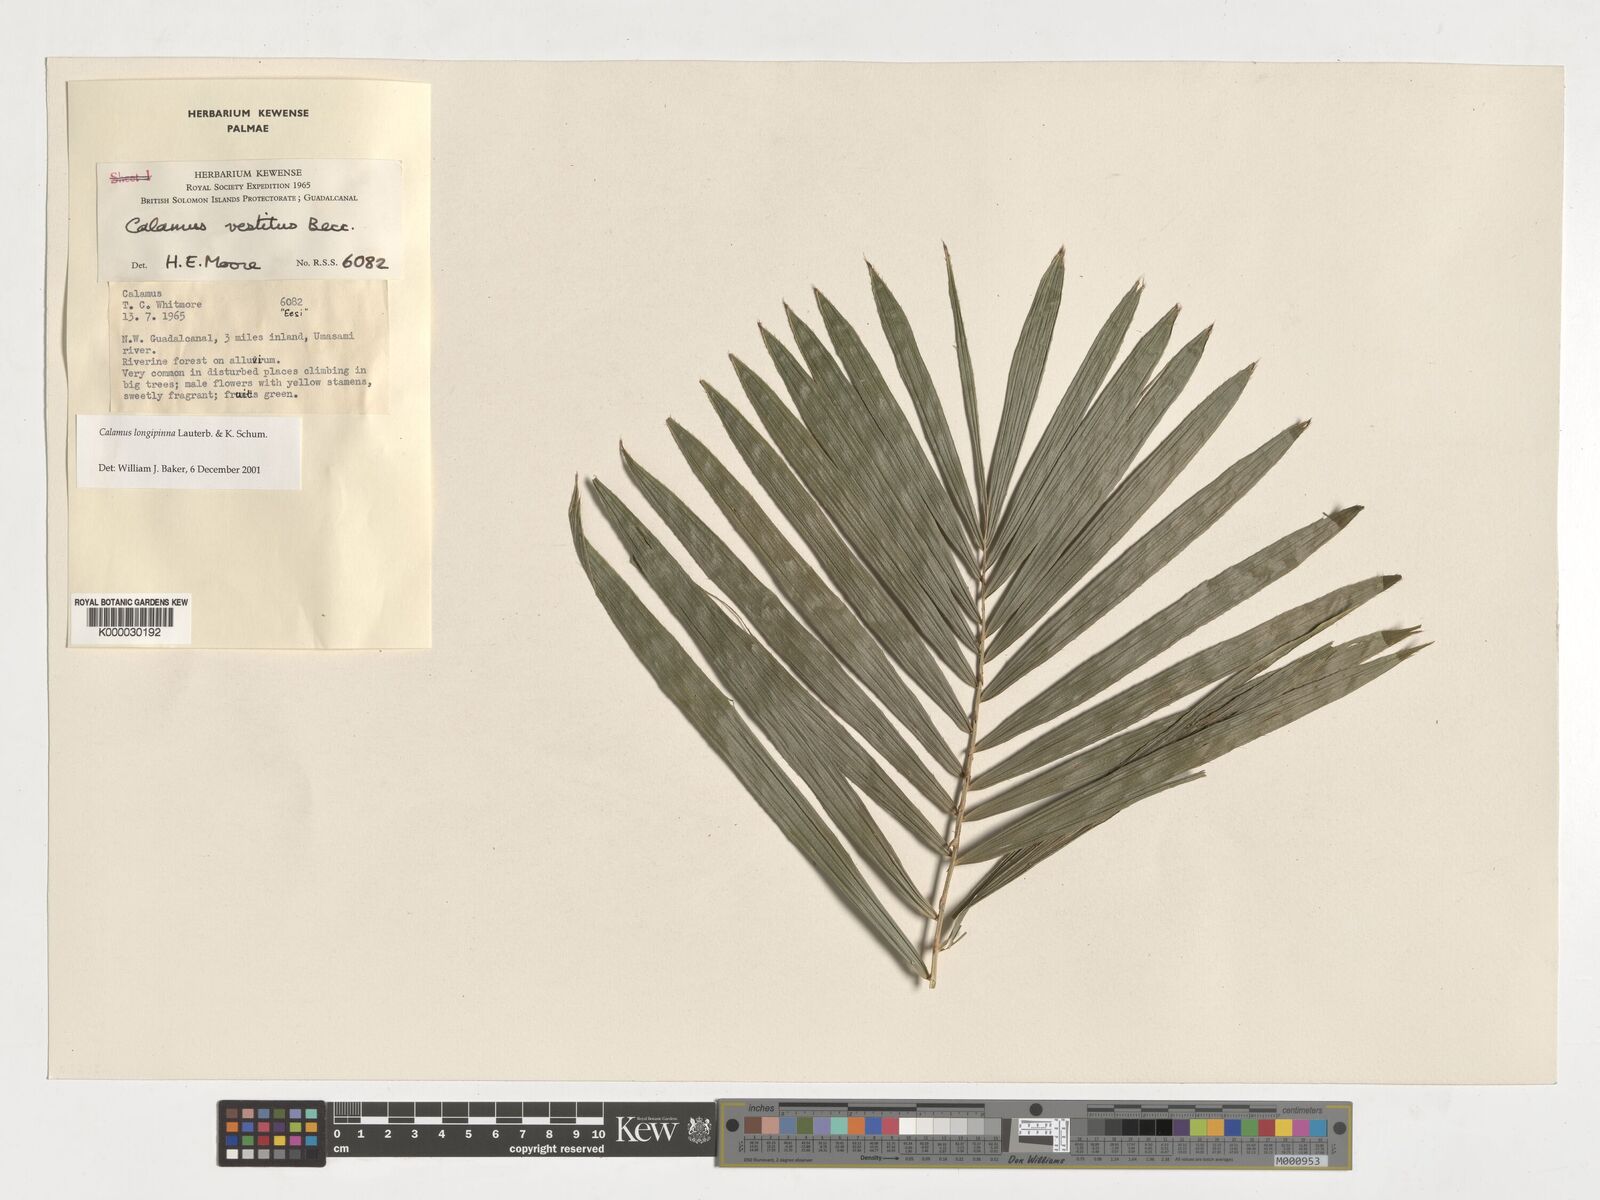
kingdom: Plantae
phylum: Tracheophyta
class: Liliopsida
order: Arecales
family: Arecaceae
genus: Calamus
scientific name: Calamus longipinna
